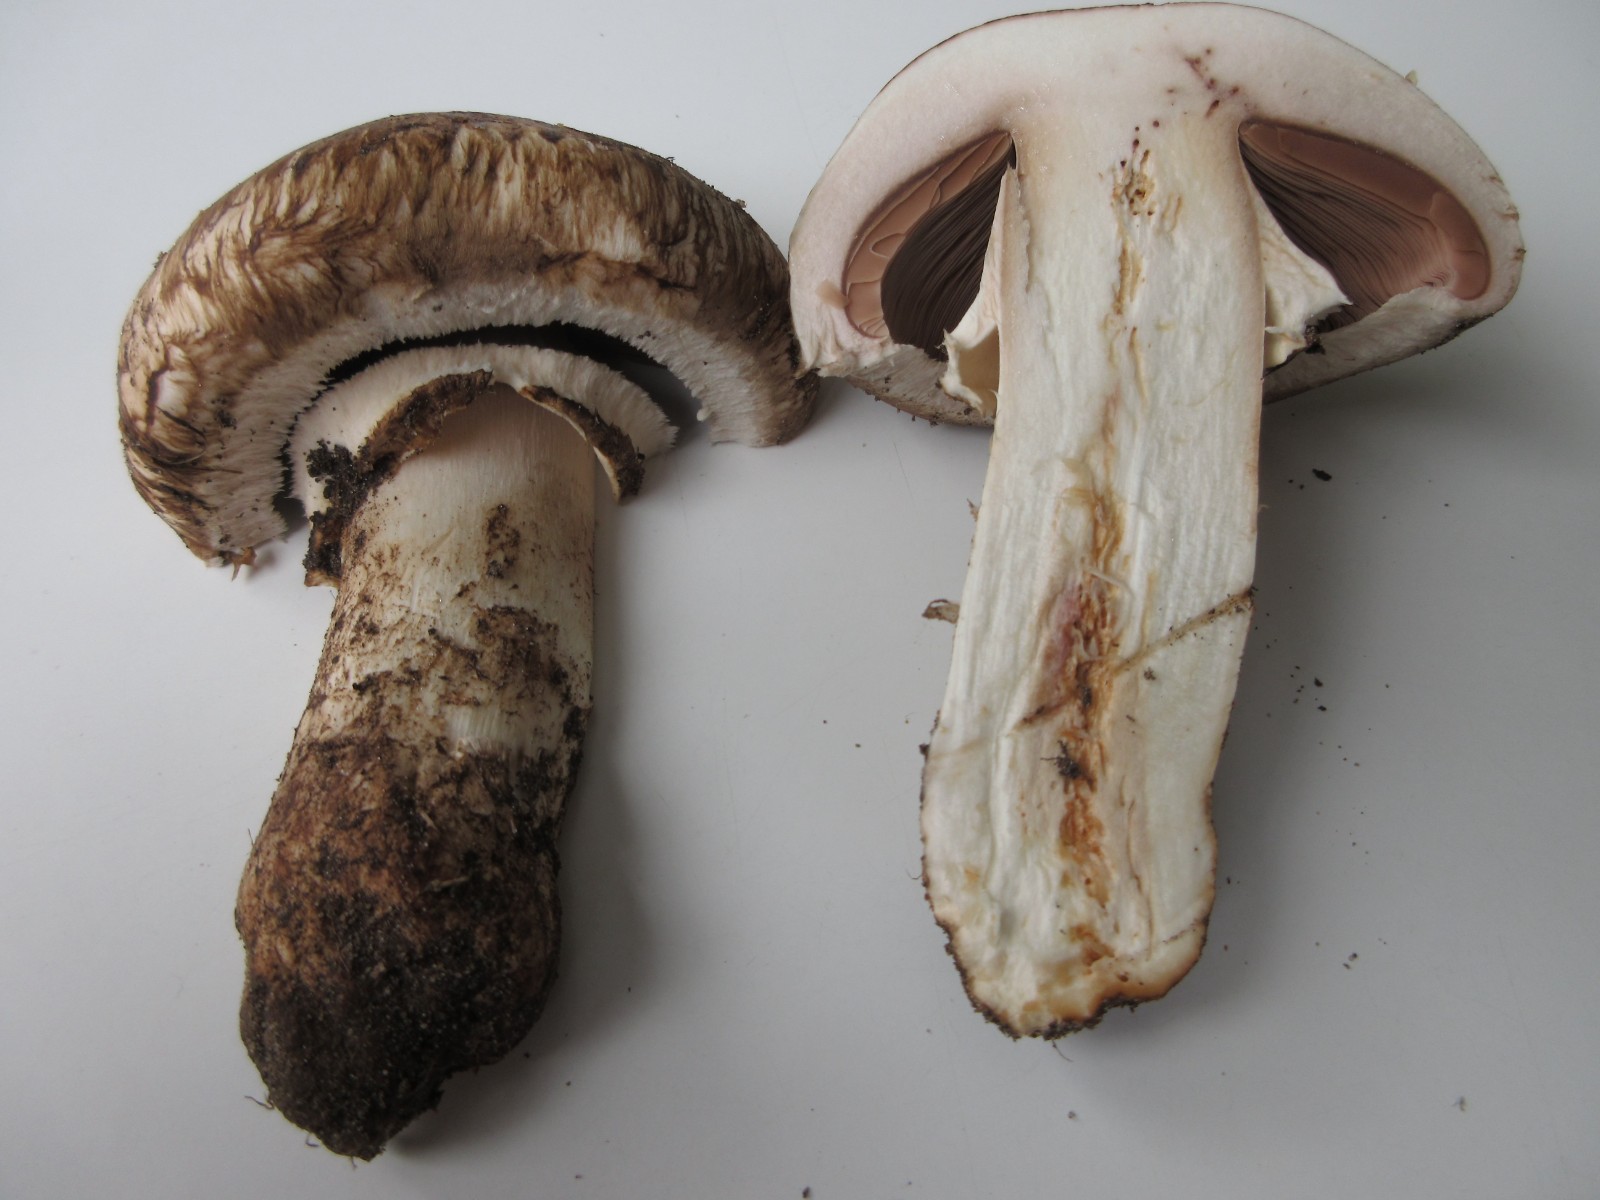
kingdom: Fungi
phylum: Basidiomycota
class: Agaricomycetes
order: Agaricales
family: Agaricaceae
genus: Agaricus
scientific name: Agaricus subperonatus
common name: knippe-champignon
